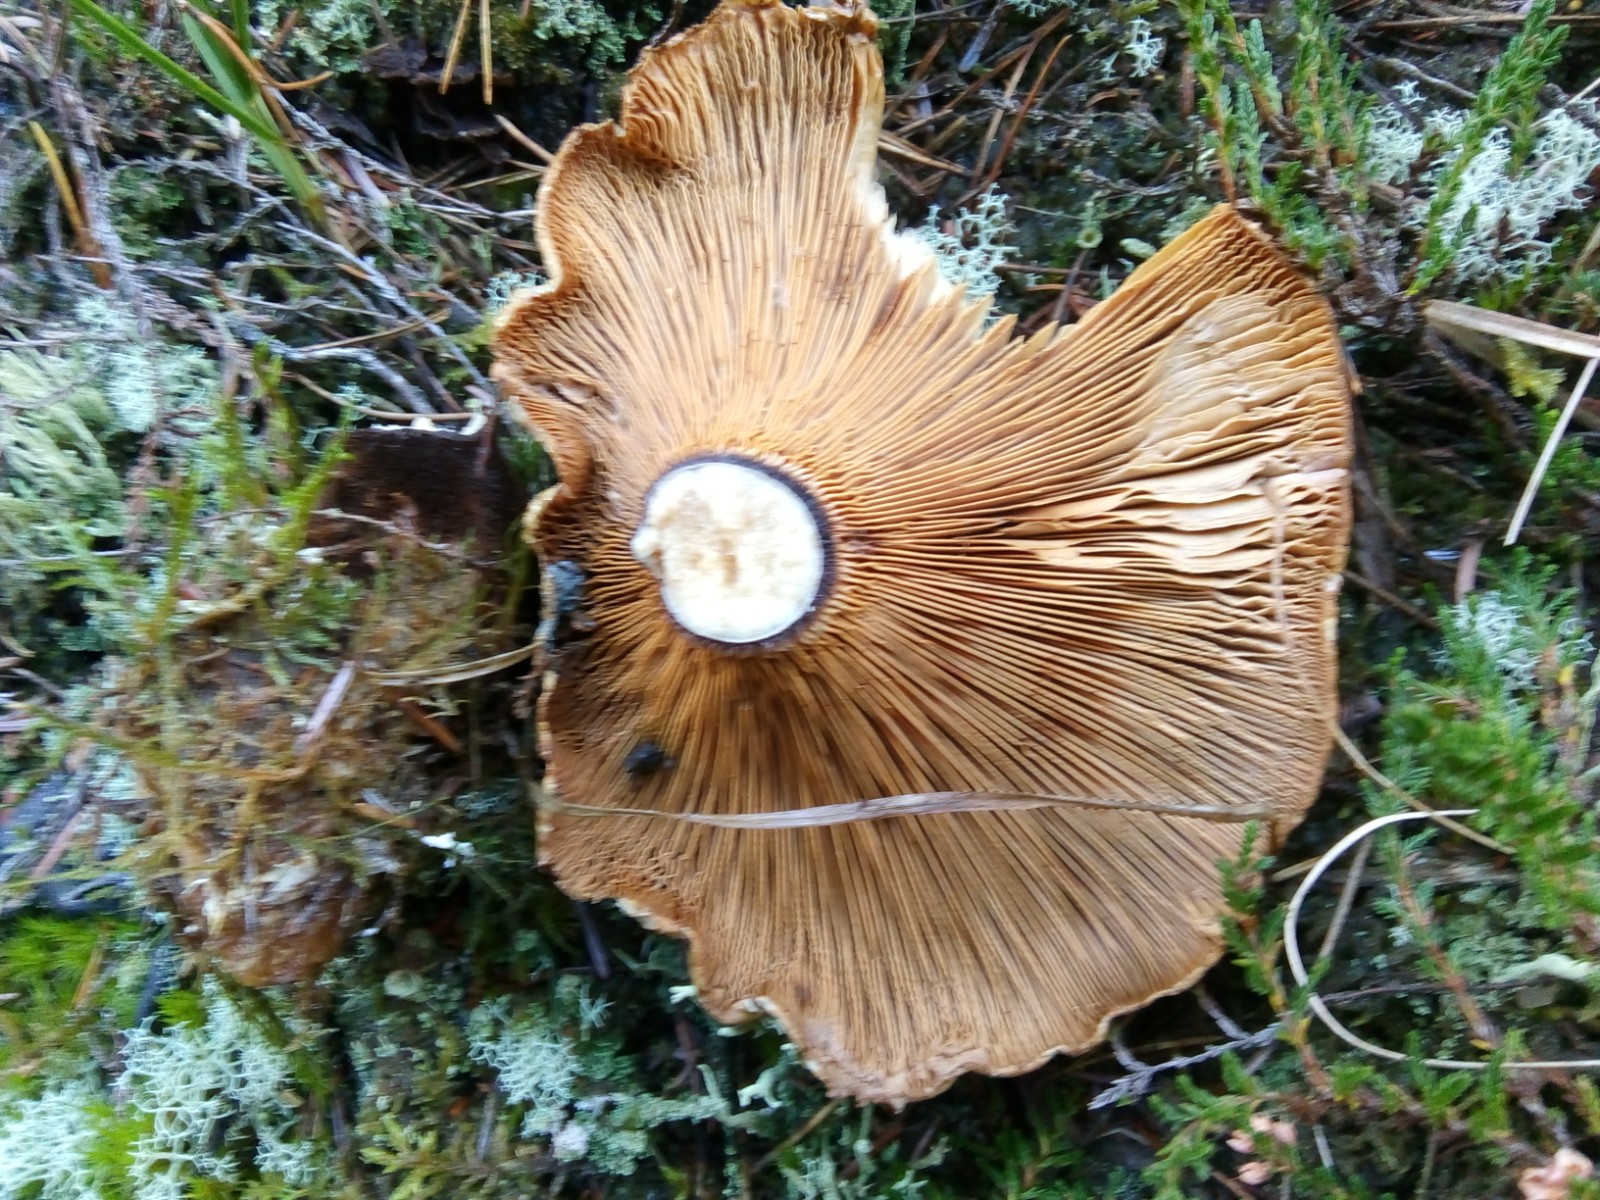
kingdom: Fungi
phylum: Basidiomycota
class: Agaricomycetes
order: Boletales
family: Tapinellaceae
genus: Tapinella
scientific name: Tapinella atrotomentosa
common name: sortfiltet viftesvamp
